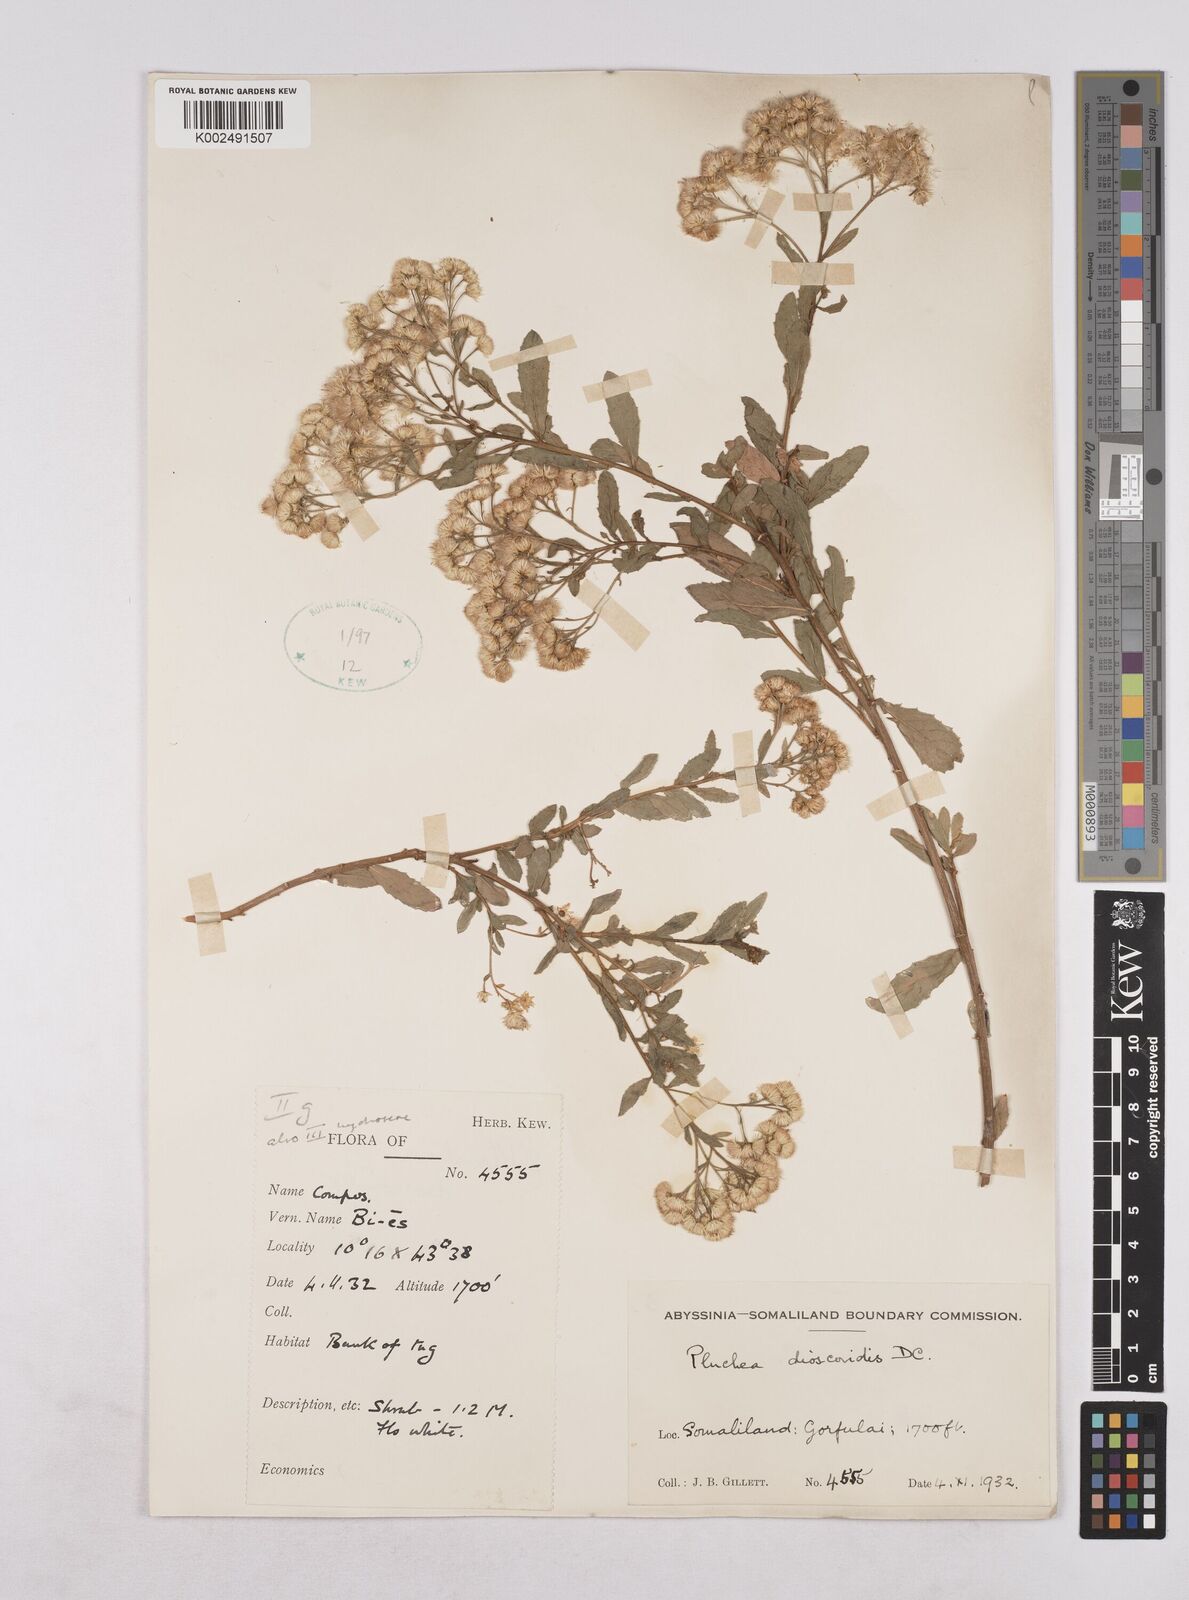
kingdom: Plantae
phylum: Tracheophyta
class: Magnoliopsida
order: Asterales
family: Asteraceae
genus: Pluchea
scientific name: Pluchea dioscoridis
